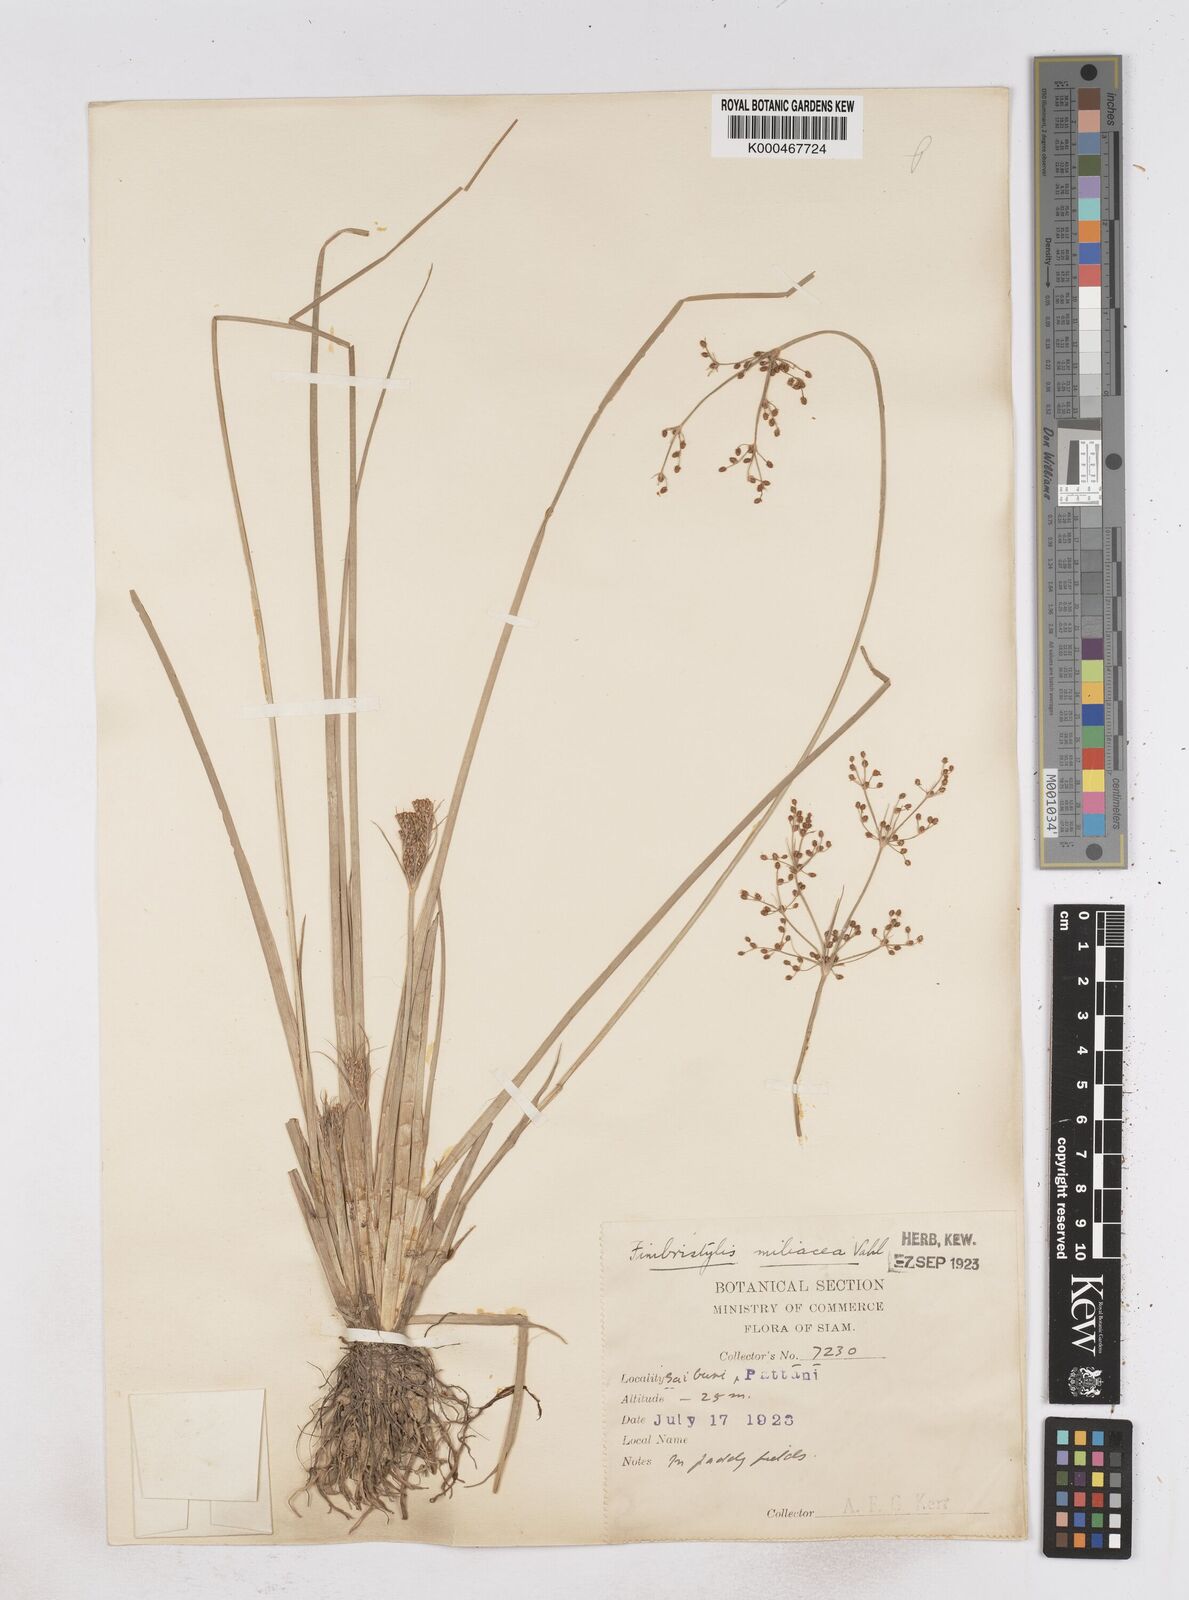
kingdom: Plantae
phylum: Tracheophyta
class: Liliopsida
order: Poales
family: Cyperaceae
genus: Fimbristylis
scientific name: Fimbristylis quinquangularis
